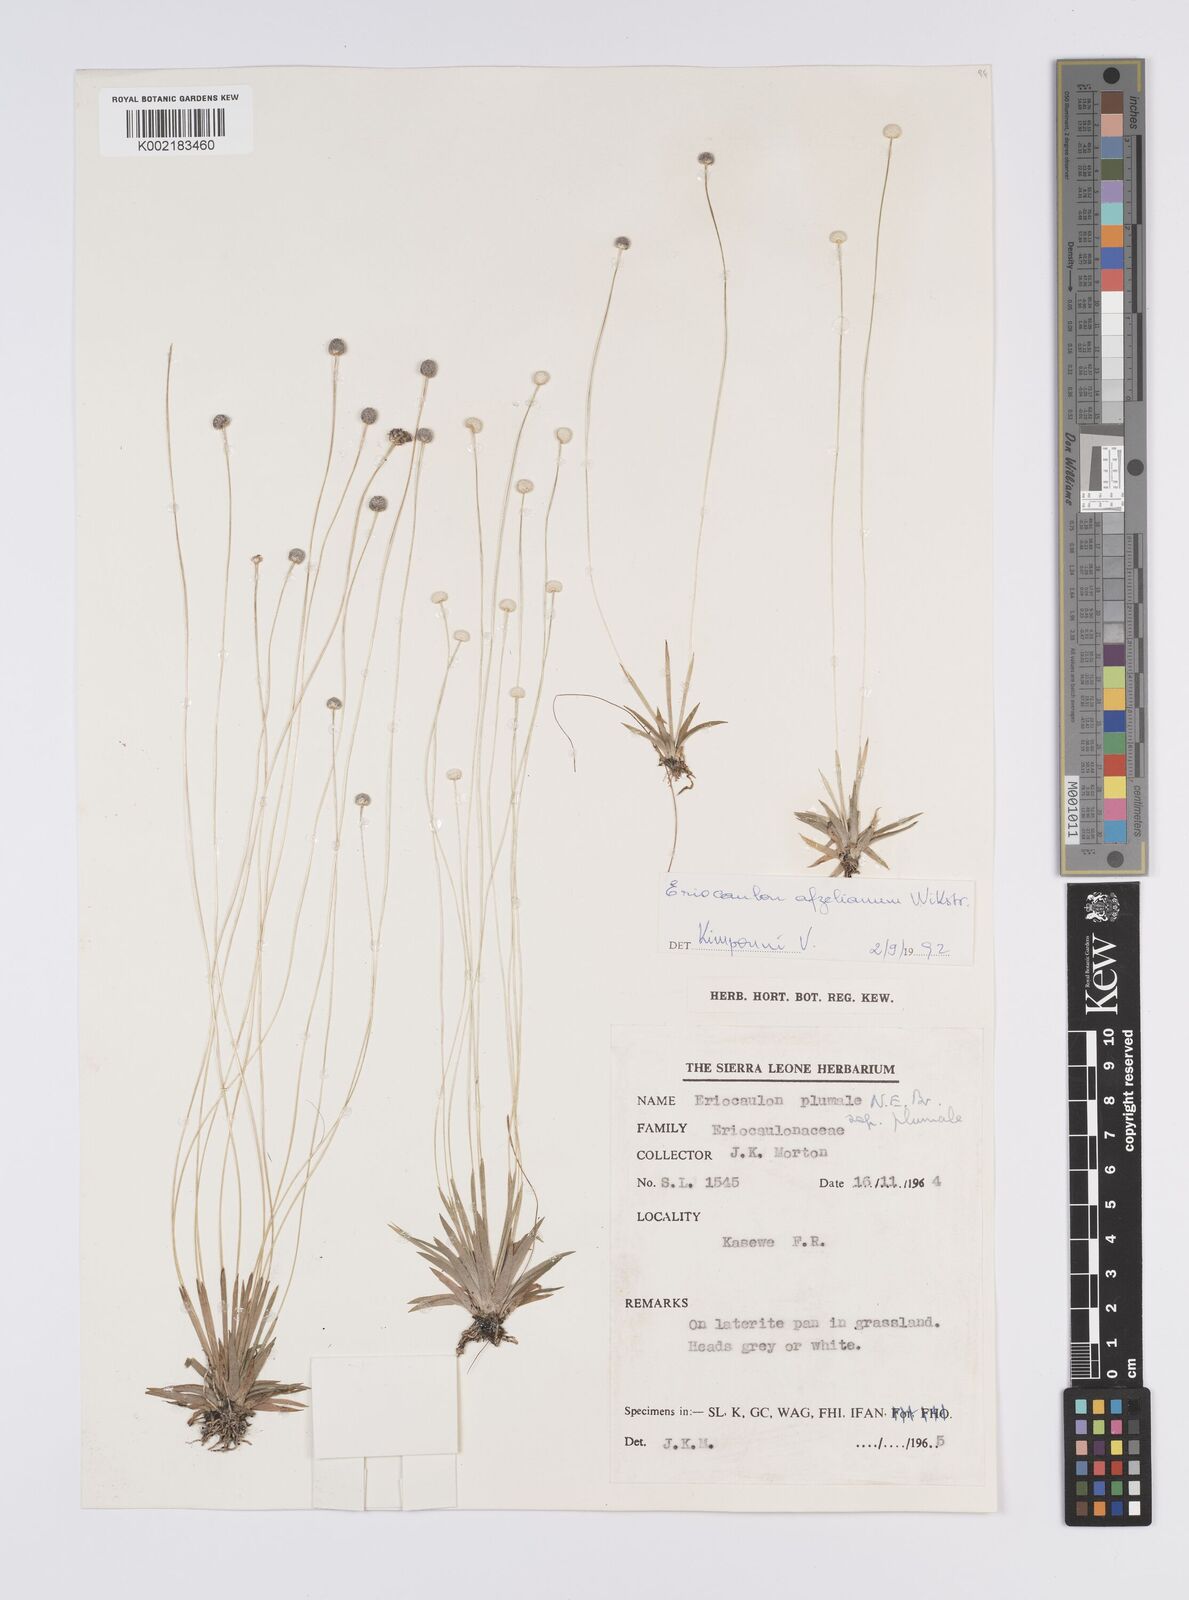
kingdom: Plantae
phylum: Tracheophyta
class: Liliopsida
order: Poales
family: Eriocaulaceae
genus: Eriocaulon
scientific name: Eriocaulon afzelianum
